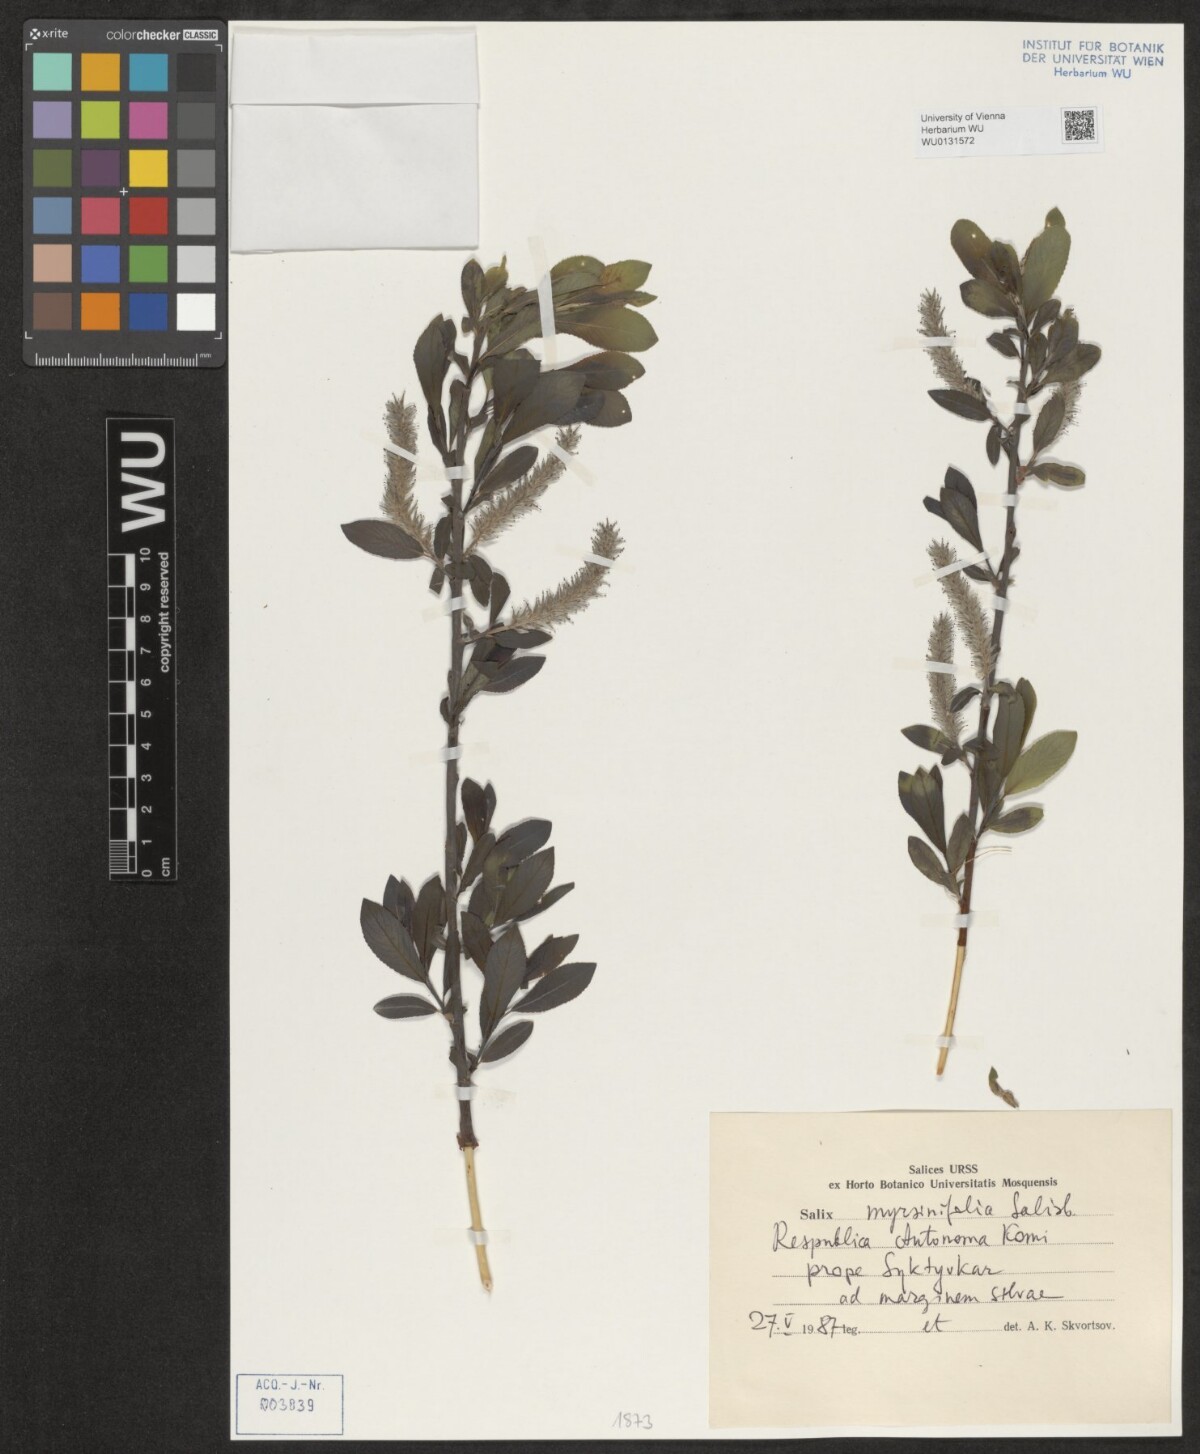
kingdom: Plantae
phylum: Tracheophyta
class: Magnoliopsida
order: Malpighiales
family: Salicaceae
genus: Salix
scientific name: Salix myrsinifolia
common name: Dark-leaved willow
